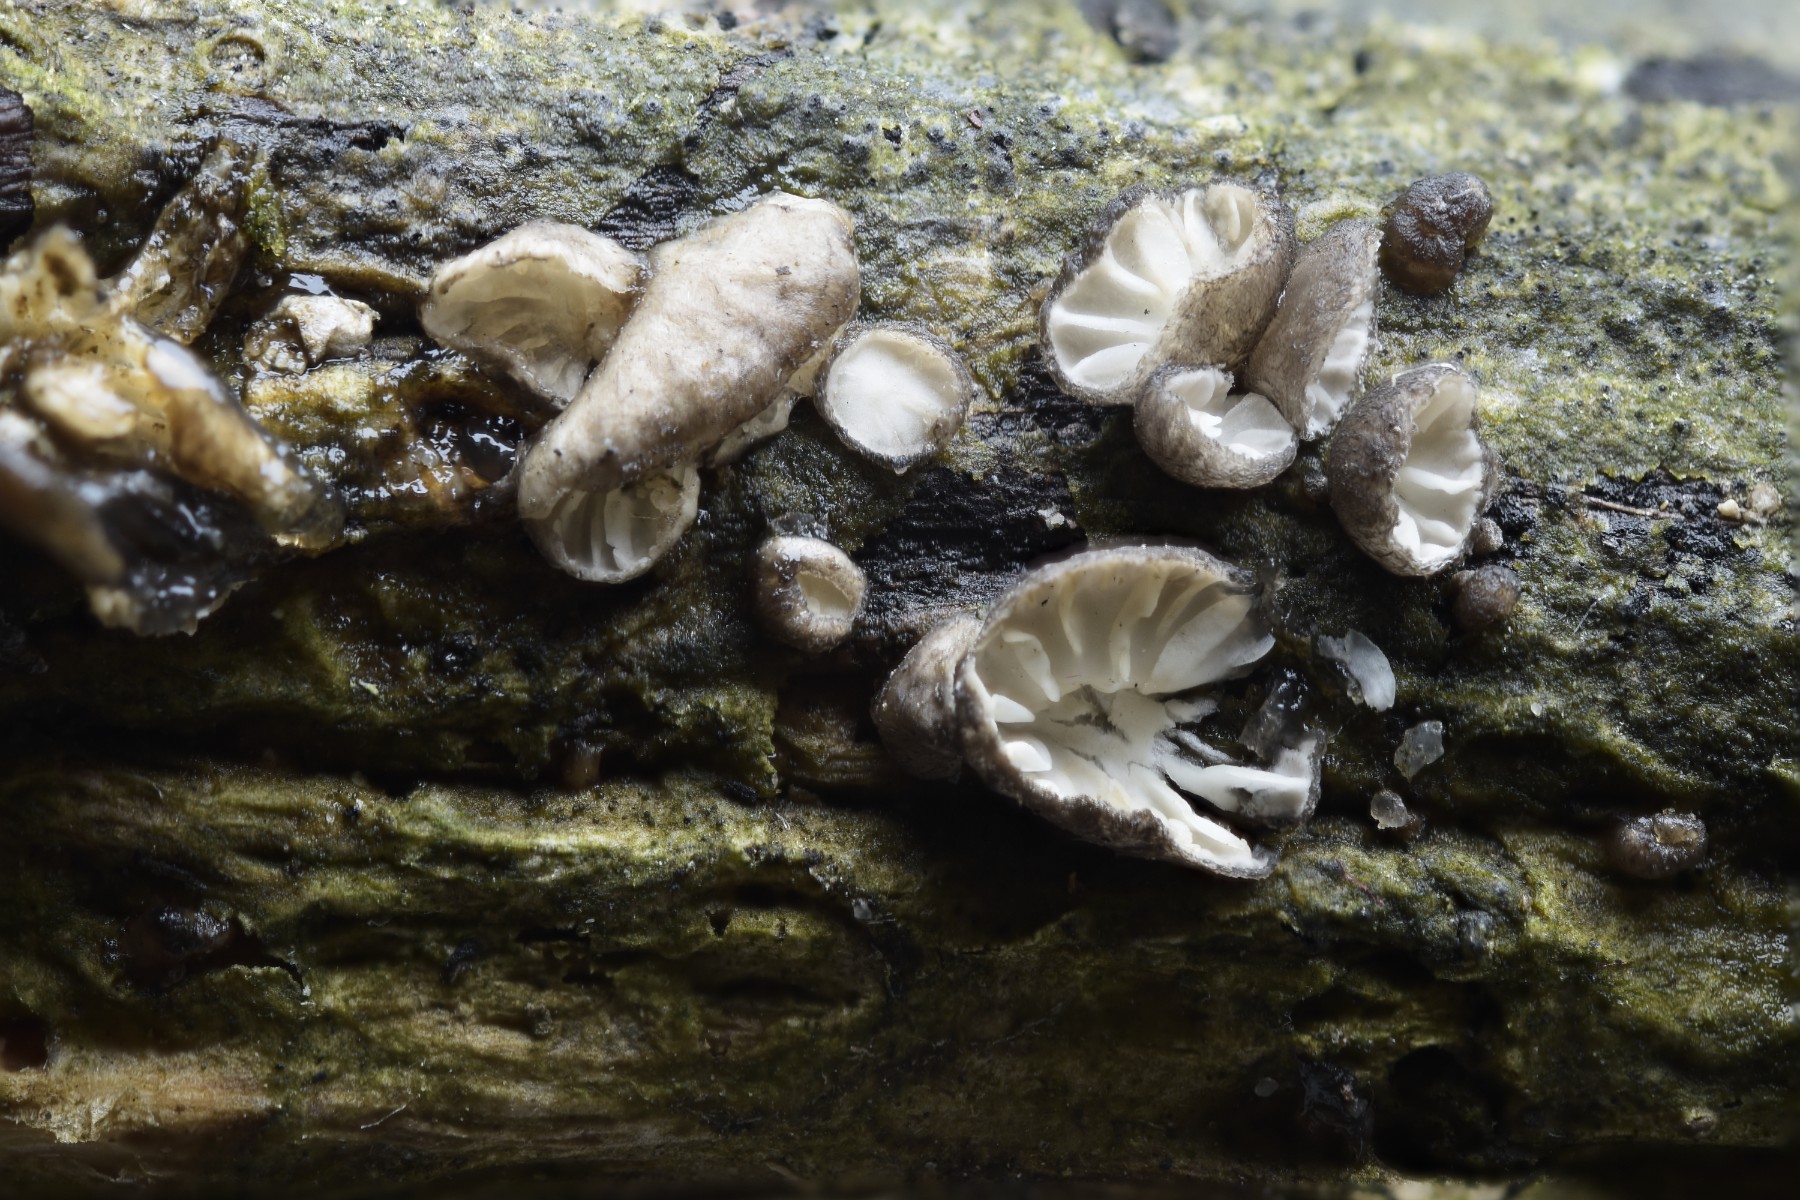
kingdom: Fungi
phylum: Basidiomycota
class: Agaricomycetes
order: Agaricales
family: Pleurotaceae
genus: Hohenbuehelia
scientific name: Hohenbuehelia cyphelliformis
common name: urte-filthat
